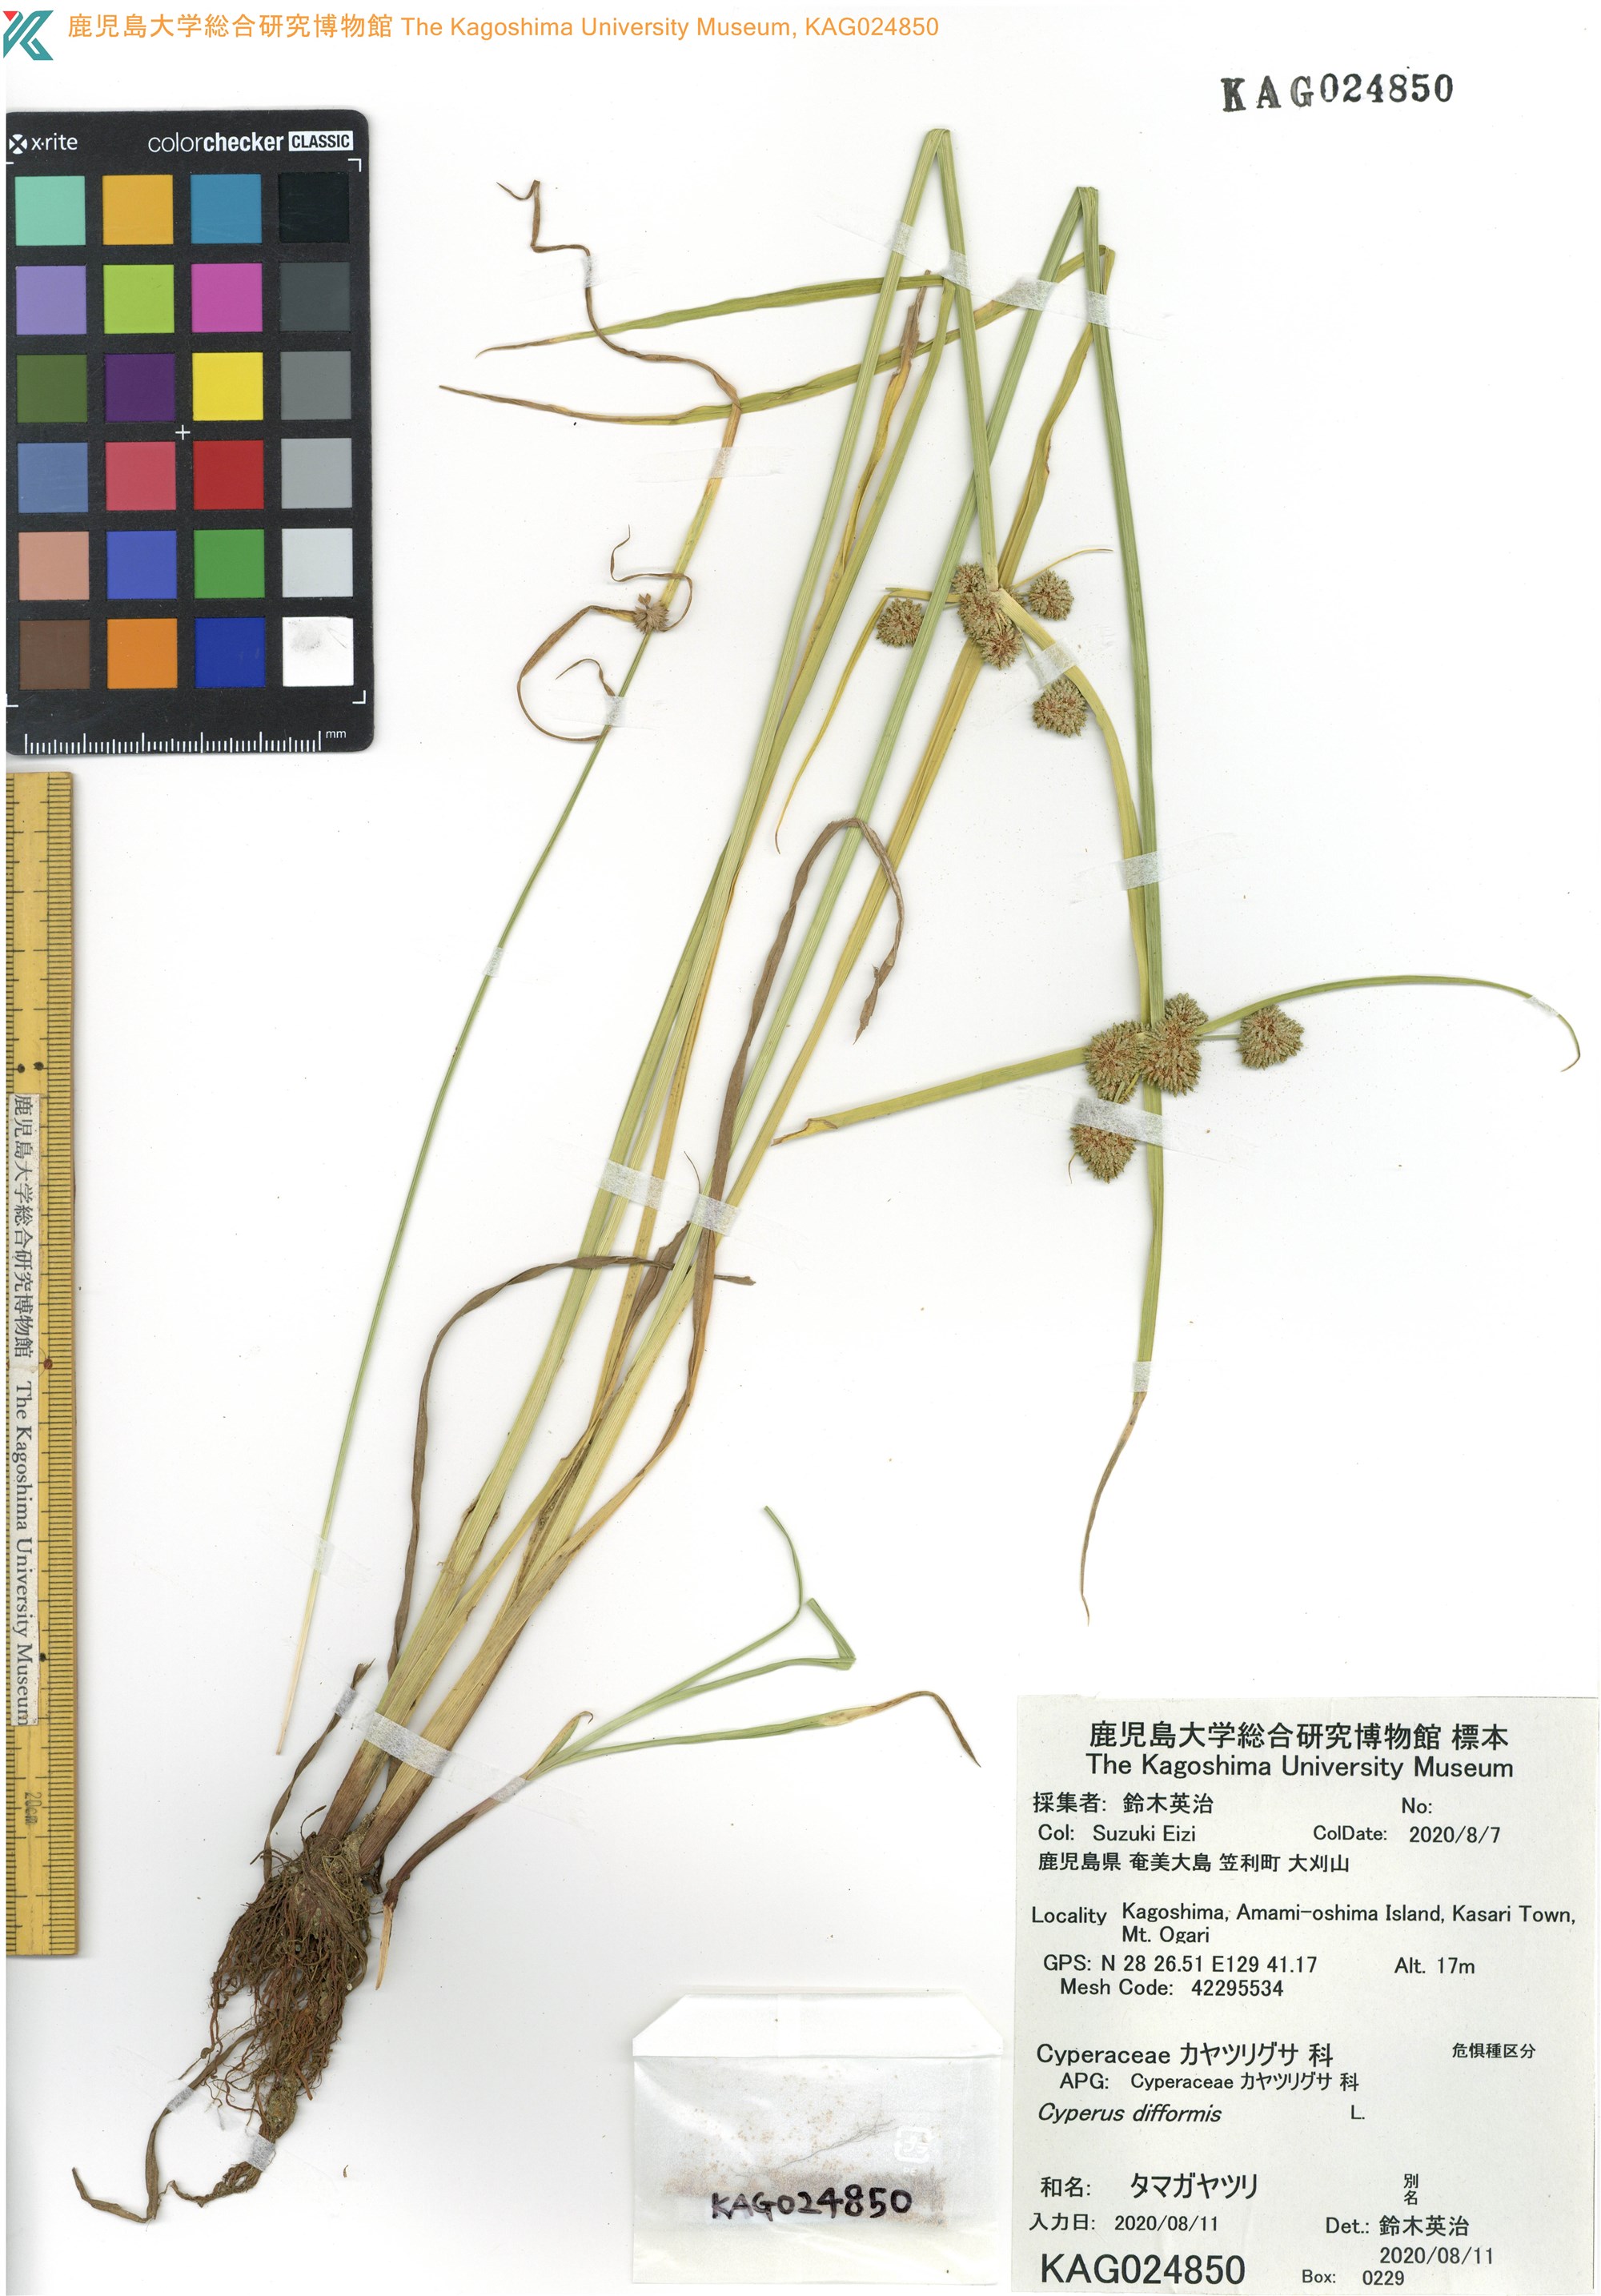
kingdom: Plantae
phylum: Tracheophyta
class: Liliopsida
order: Poales
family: Cyperaceae
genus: Cyperus
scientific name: Cyperus difformis
